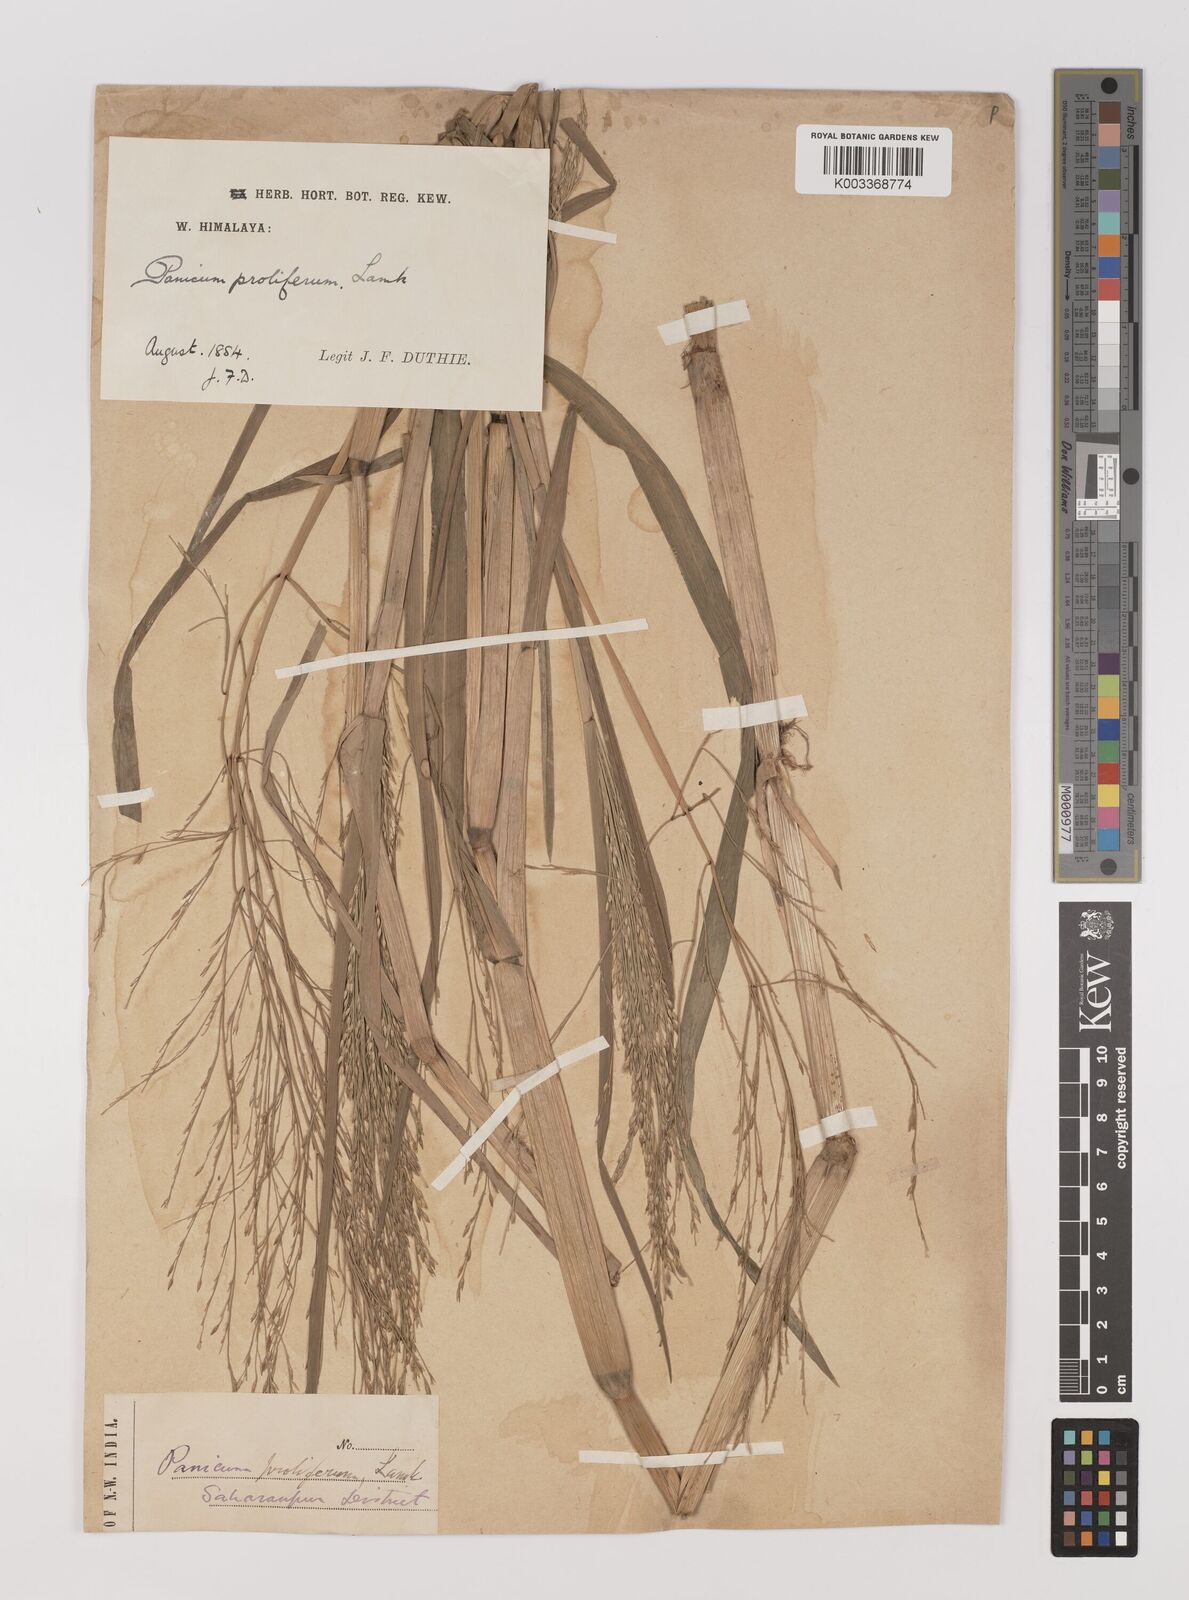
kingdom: Plantae
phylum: Tracheophyta
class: Liliopsida
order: Poales
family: Poaceae
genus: Louisiella
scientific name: Louisiella paludosa
